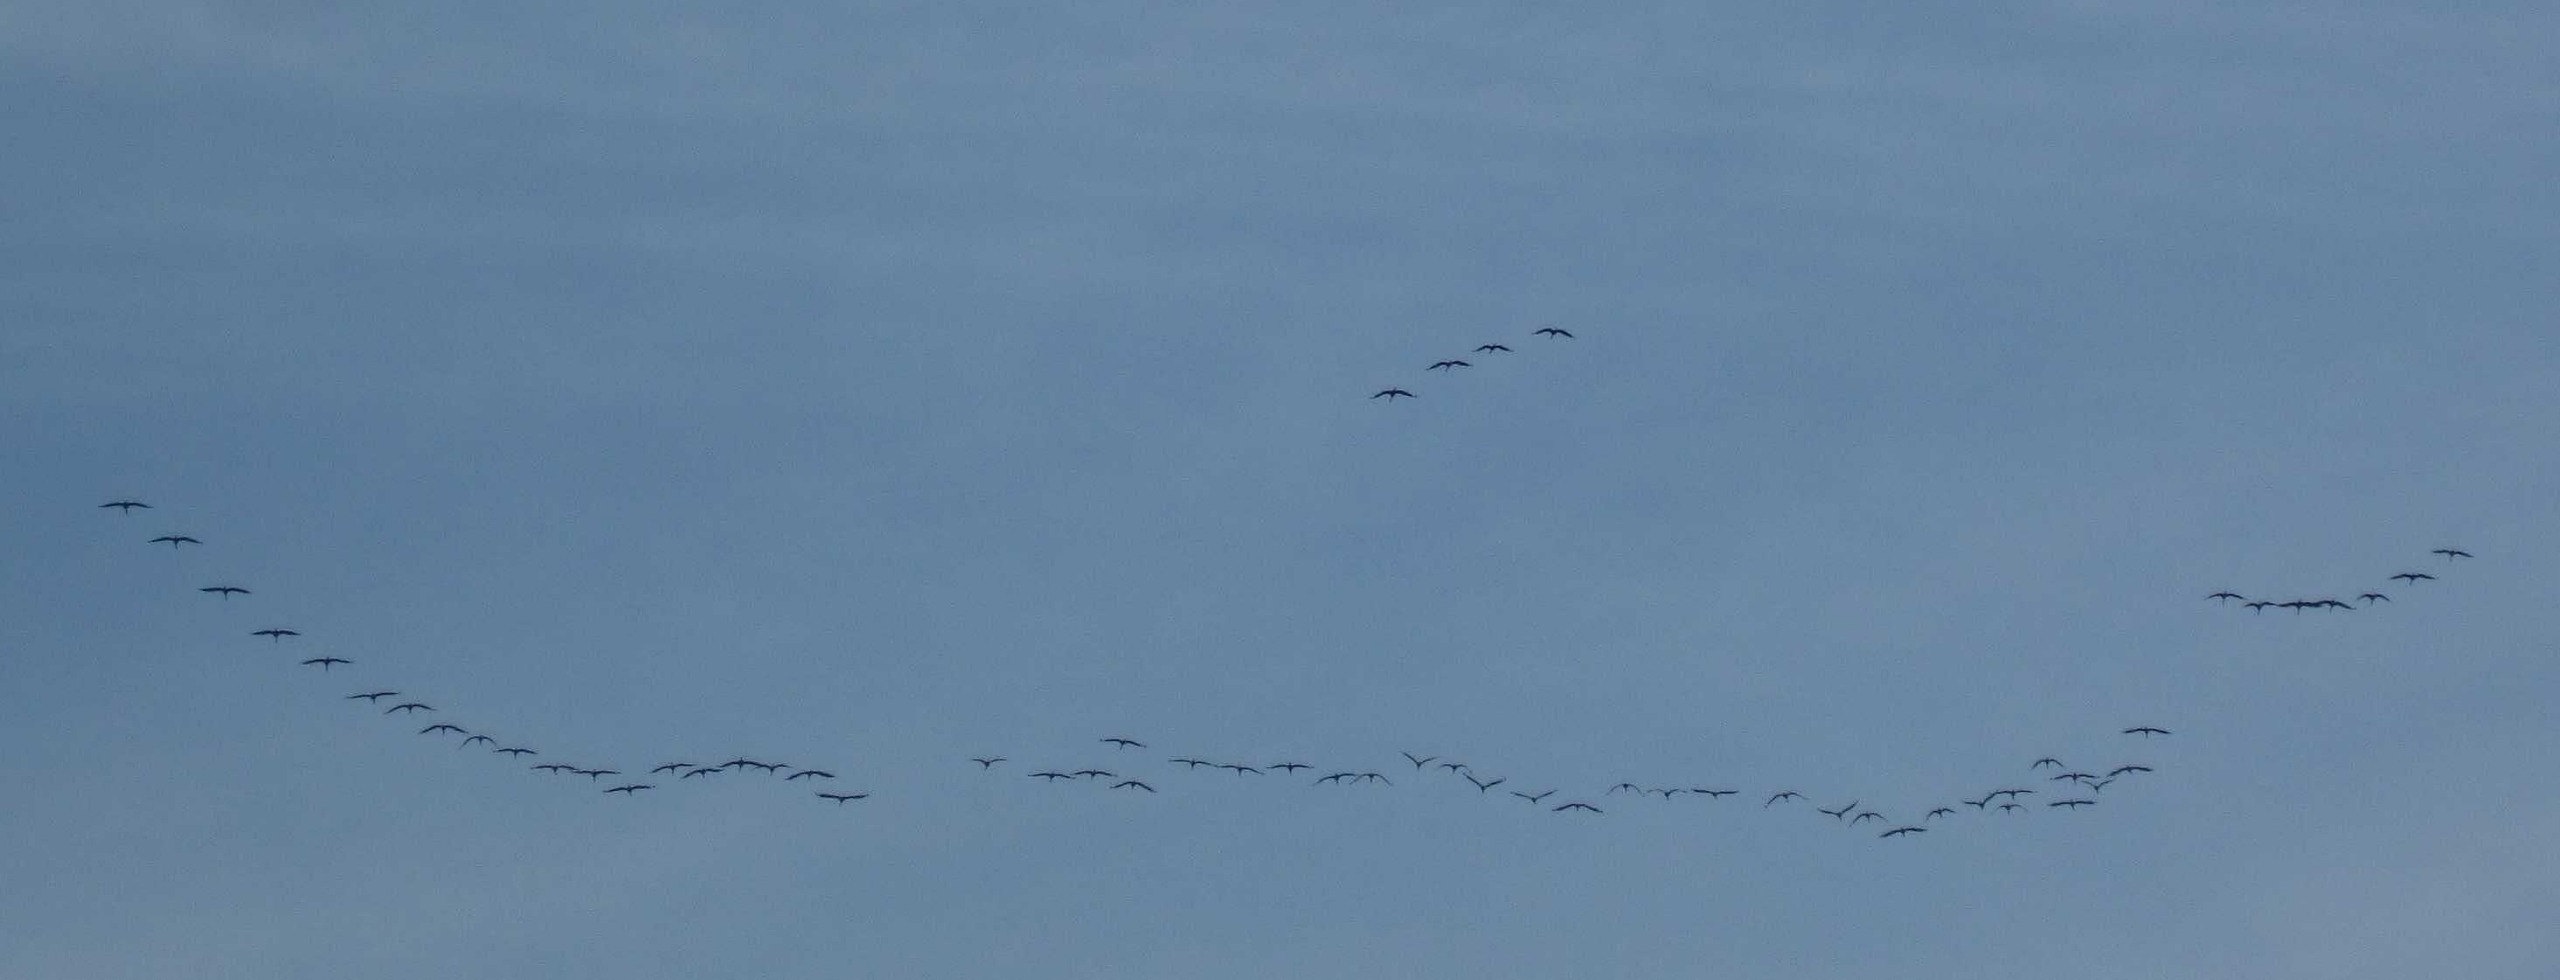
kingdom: Animalia
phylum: Chordata
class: Aves
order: Gruiformes
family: Gruidae
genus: Grus
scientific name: Grus grus
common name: Trane
